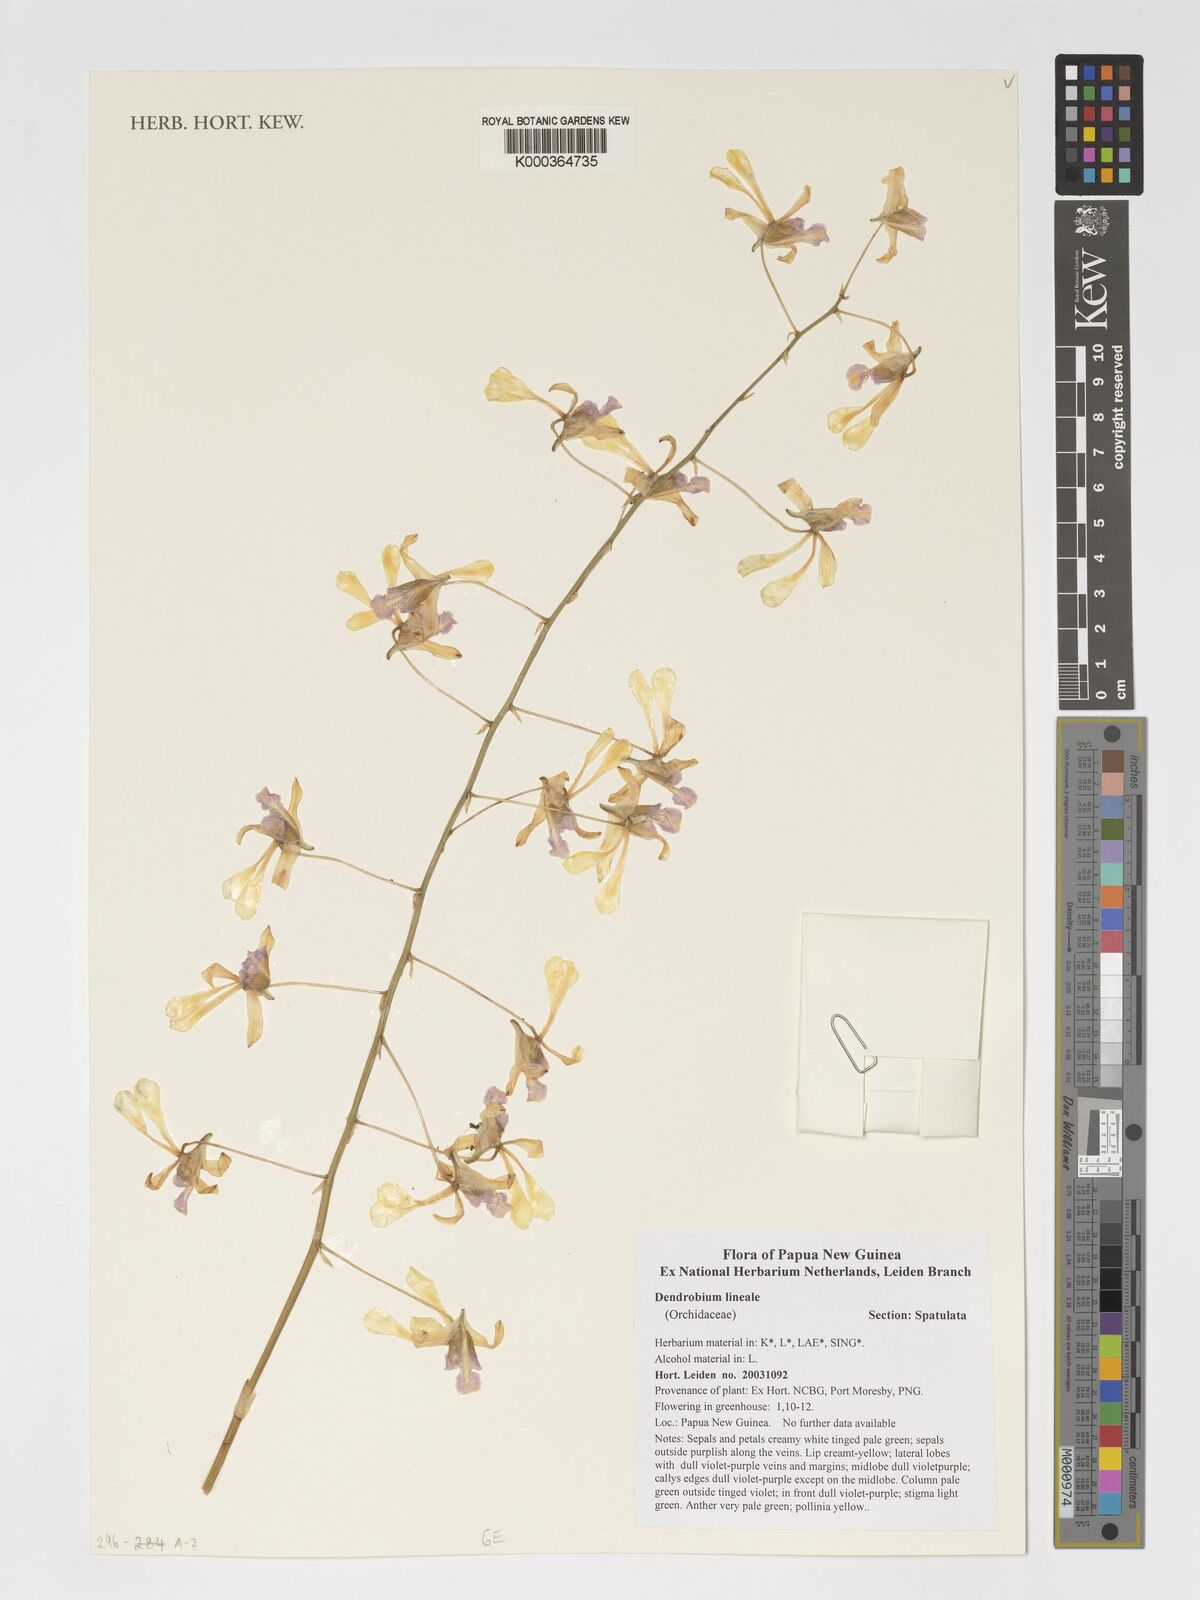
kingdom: Plantae
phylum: Tracheophyta
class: Liliopsida
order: Asparagales
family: Orchidaceae
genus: Dendrobium
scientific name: Dendrobium lineale
